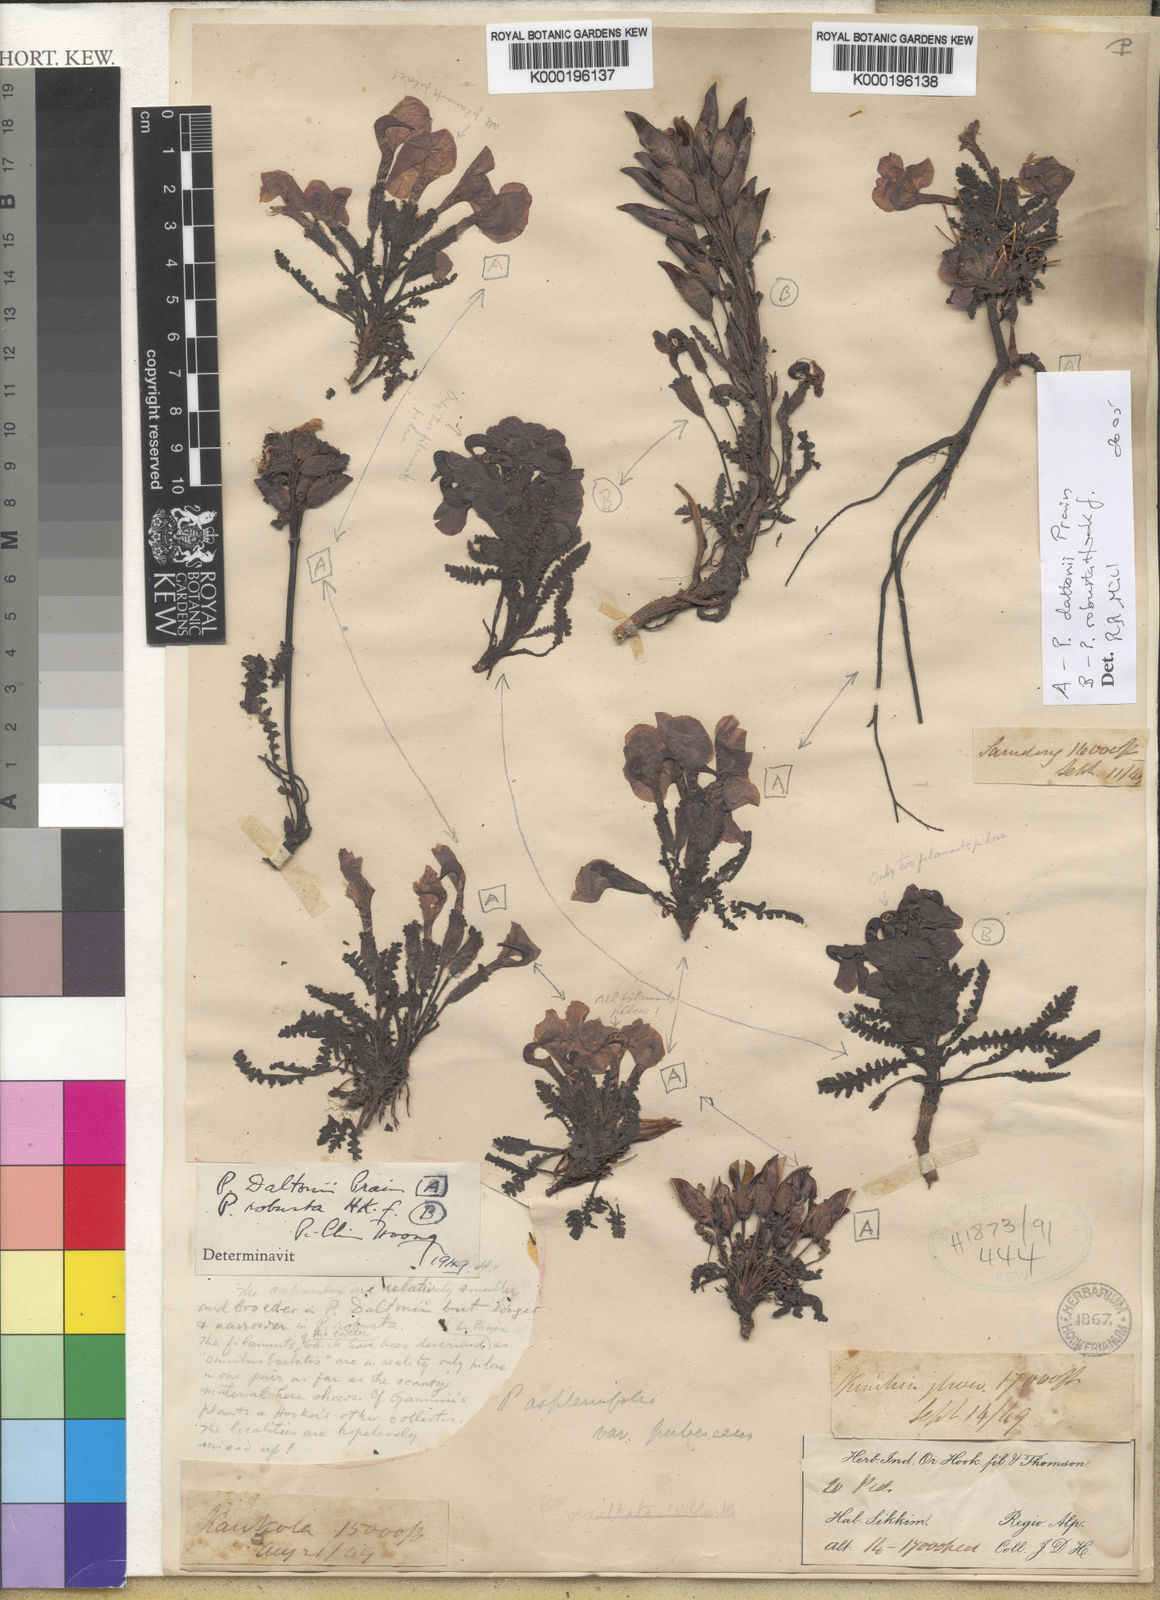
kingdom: Plantae
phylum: Tracheophyta
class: Magnoliopsida
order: Lamiales
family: Orobanchaceae
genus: Pedicularis
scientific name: Pedicularis daltonii
